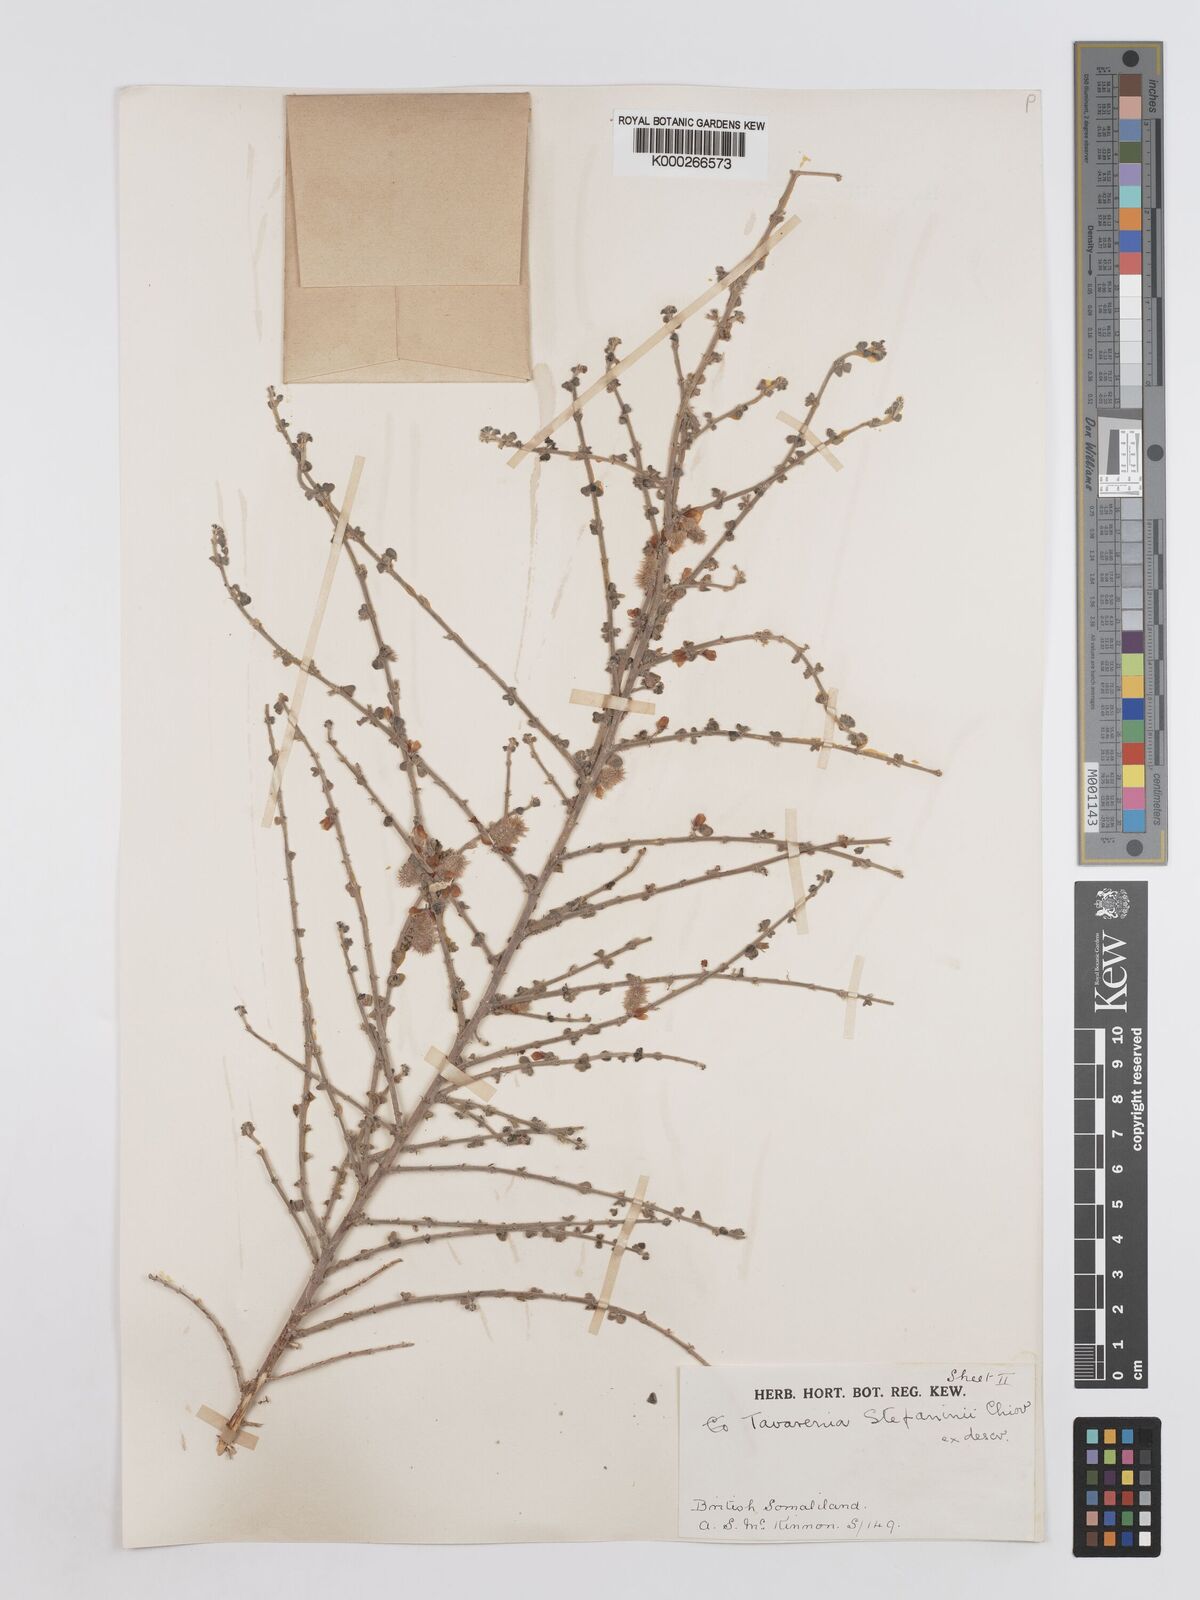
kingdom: Plantae
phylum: Tracheophyta
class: Magnoliopsida
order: Fabales
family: Fabaceae
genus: Taverniera
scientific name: Taverniera lappacea
